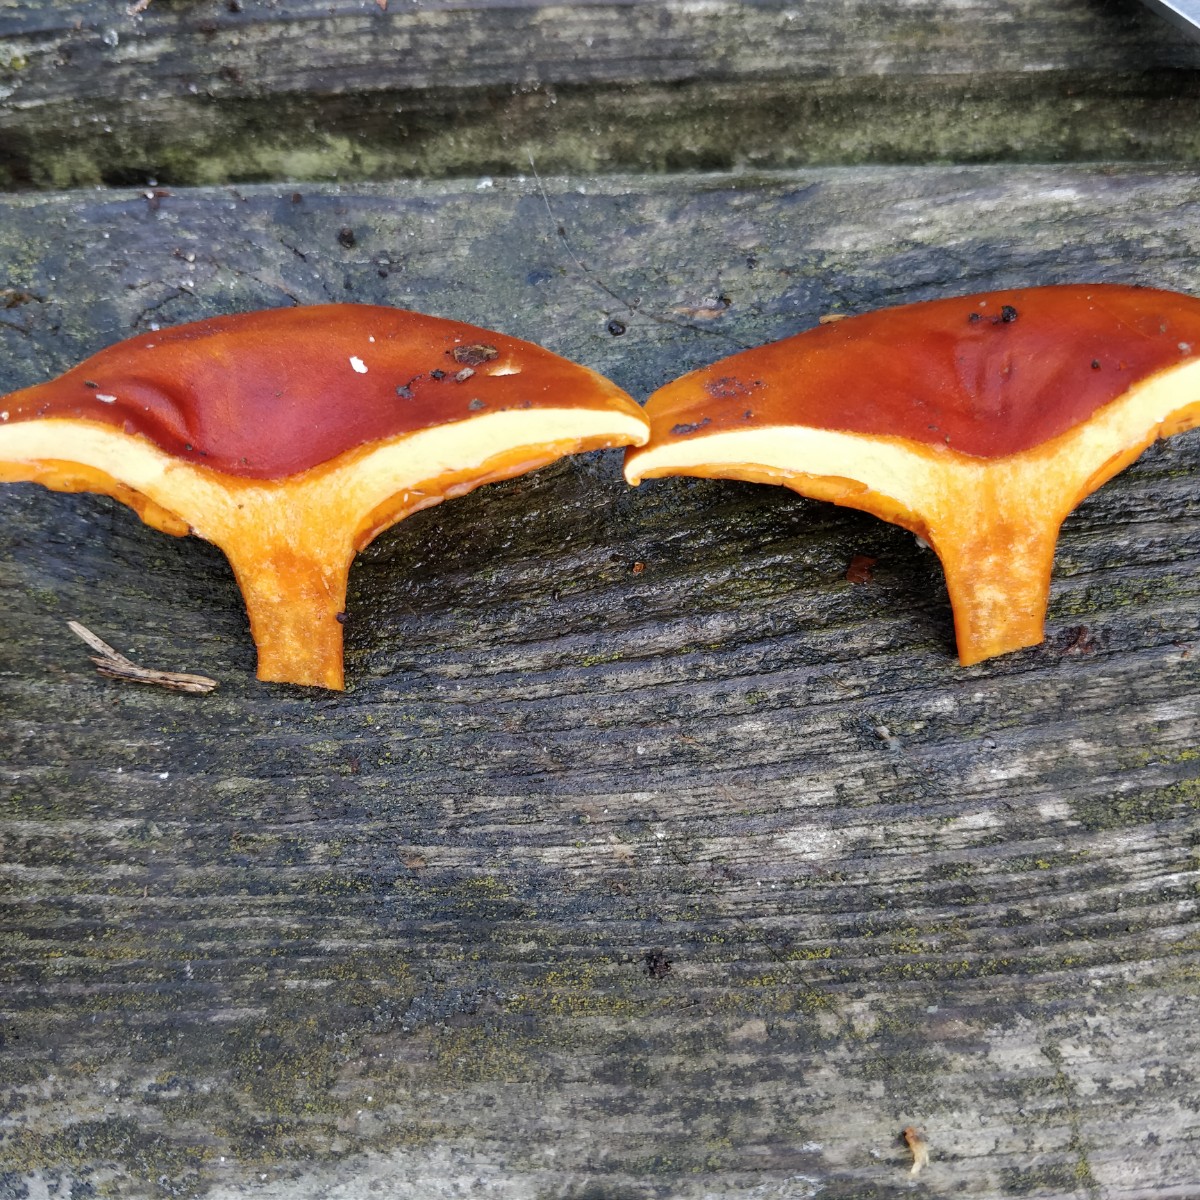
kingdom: Fungi
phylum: Basidiomycota
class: Agaricomycetes
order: Boletales
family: Hygrophoropsidaceae
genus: Hygrophoropsis
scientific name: Hygrophoropsis aurantiaca
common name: almindelig orangekantarel
